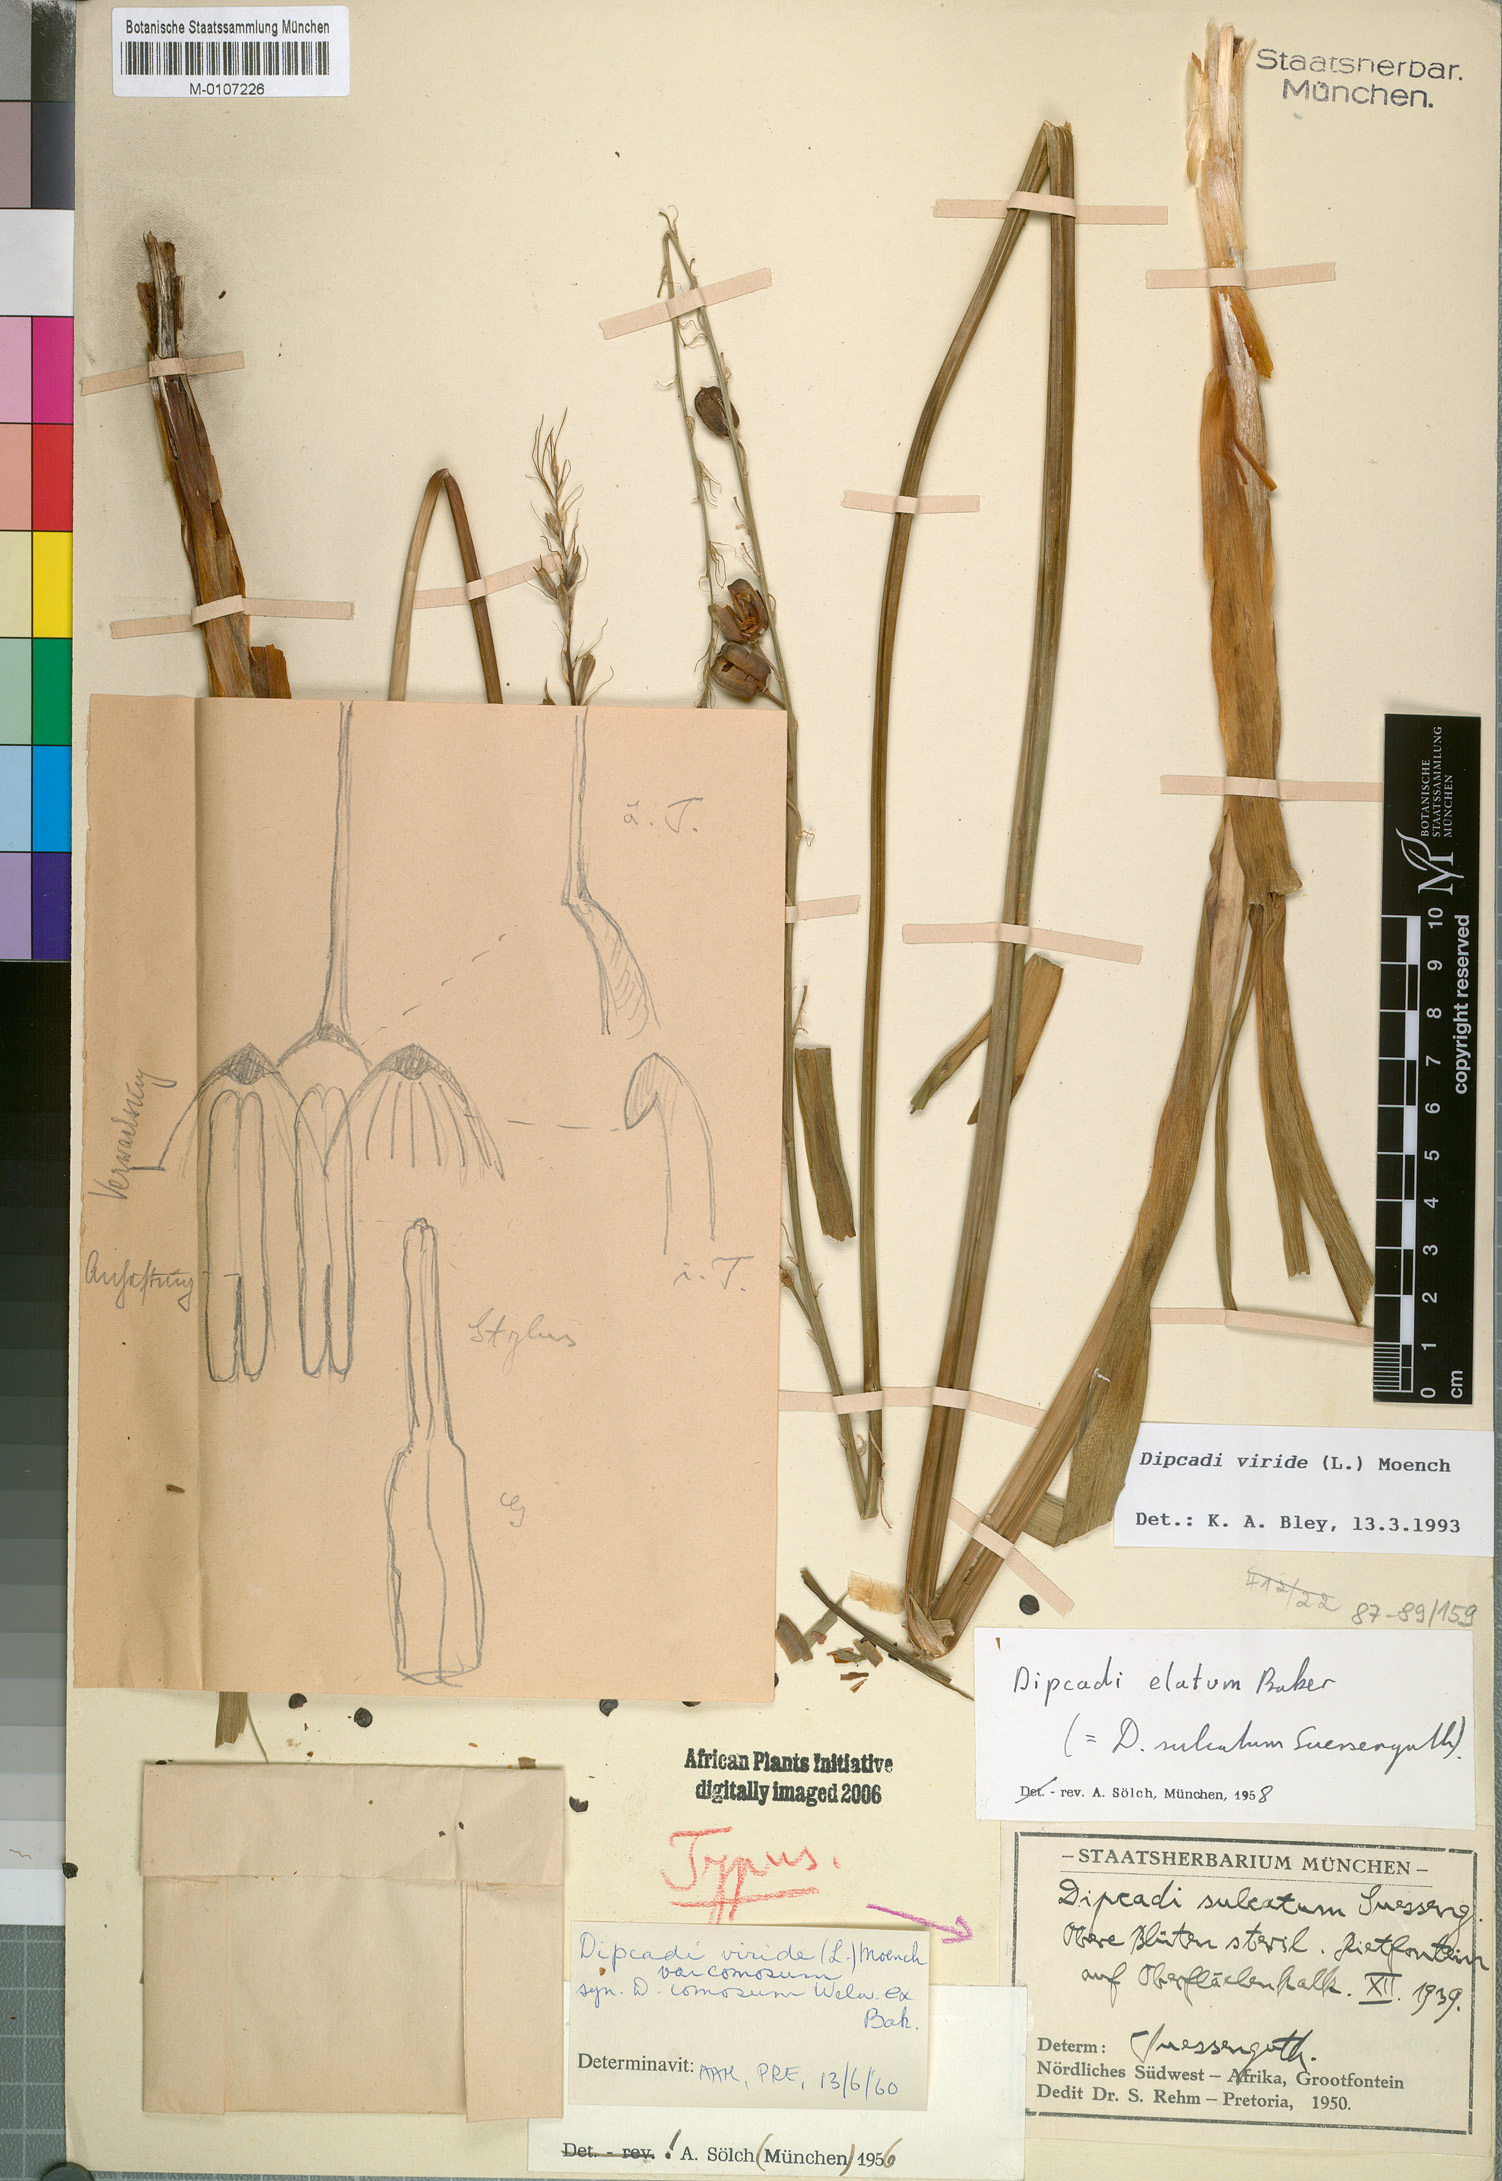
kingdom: Plantae
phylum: Tracheophyta
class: Liliopsida
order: Asparagales
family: Asparagaceae
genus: Dipcadi
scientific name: Dipcadi viride
